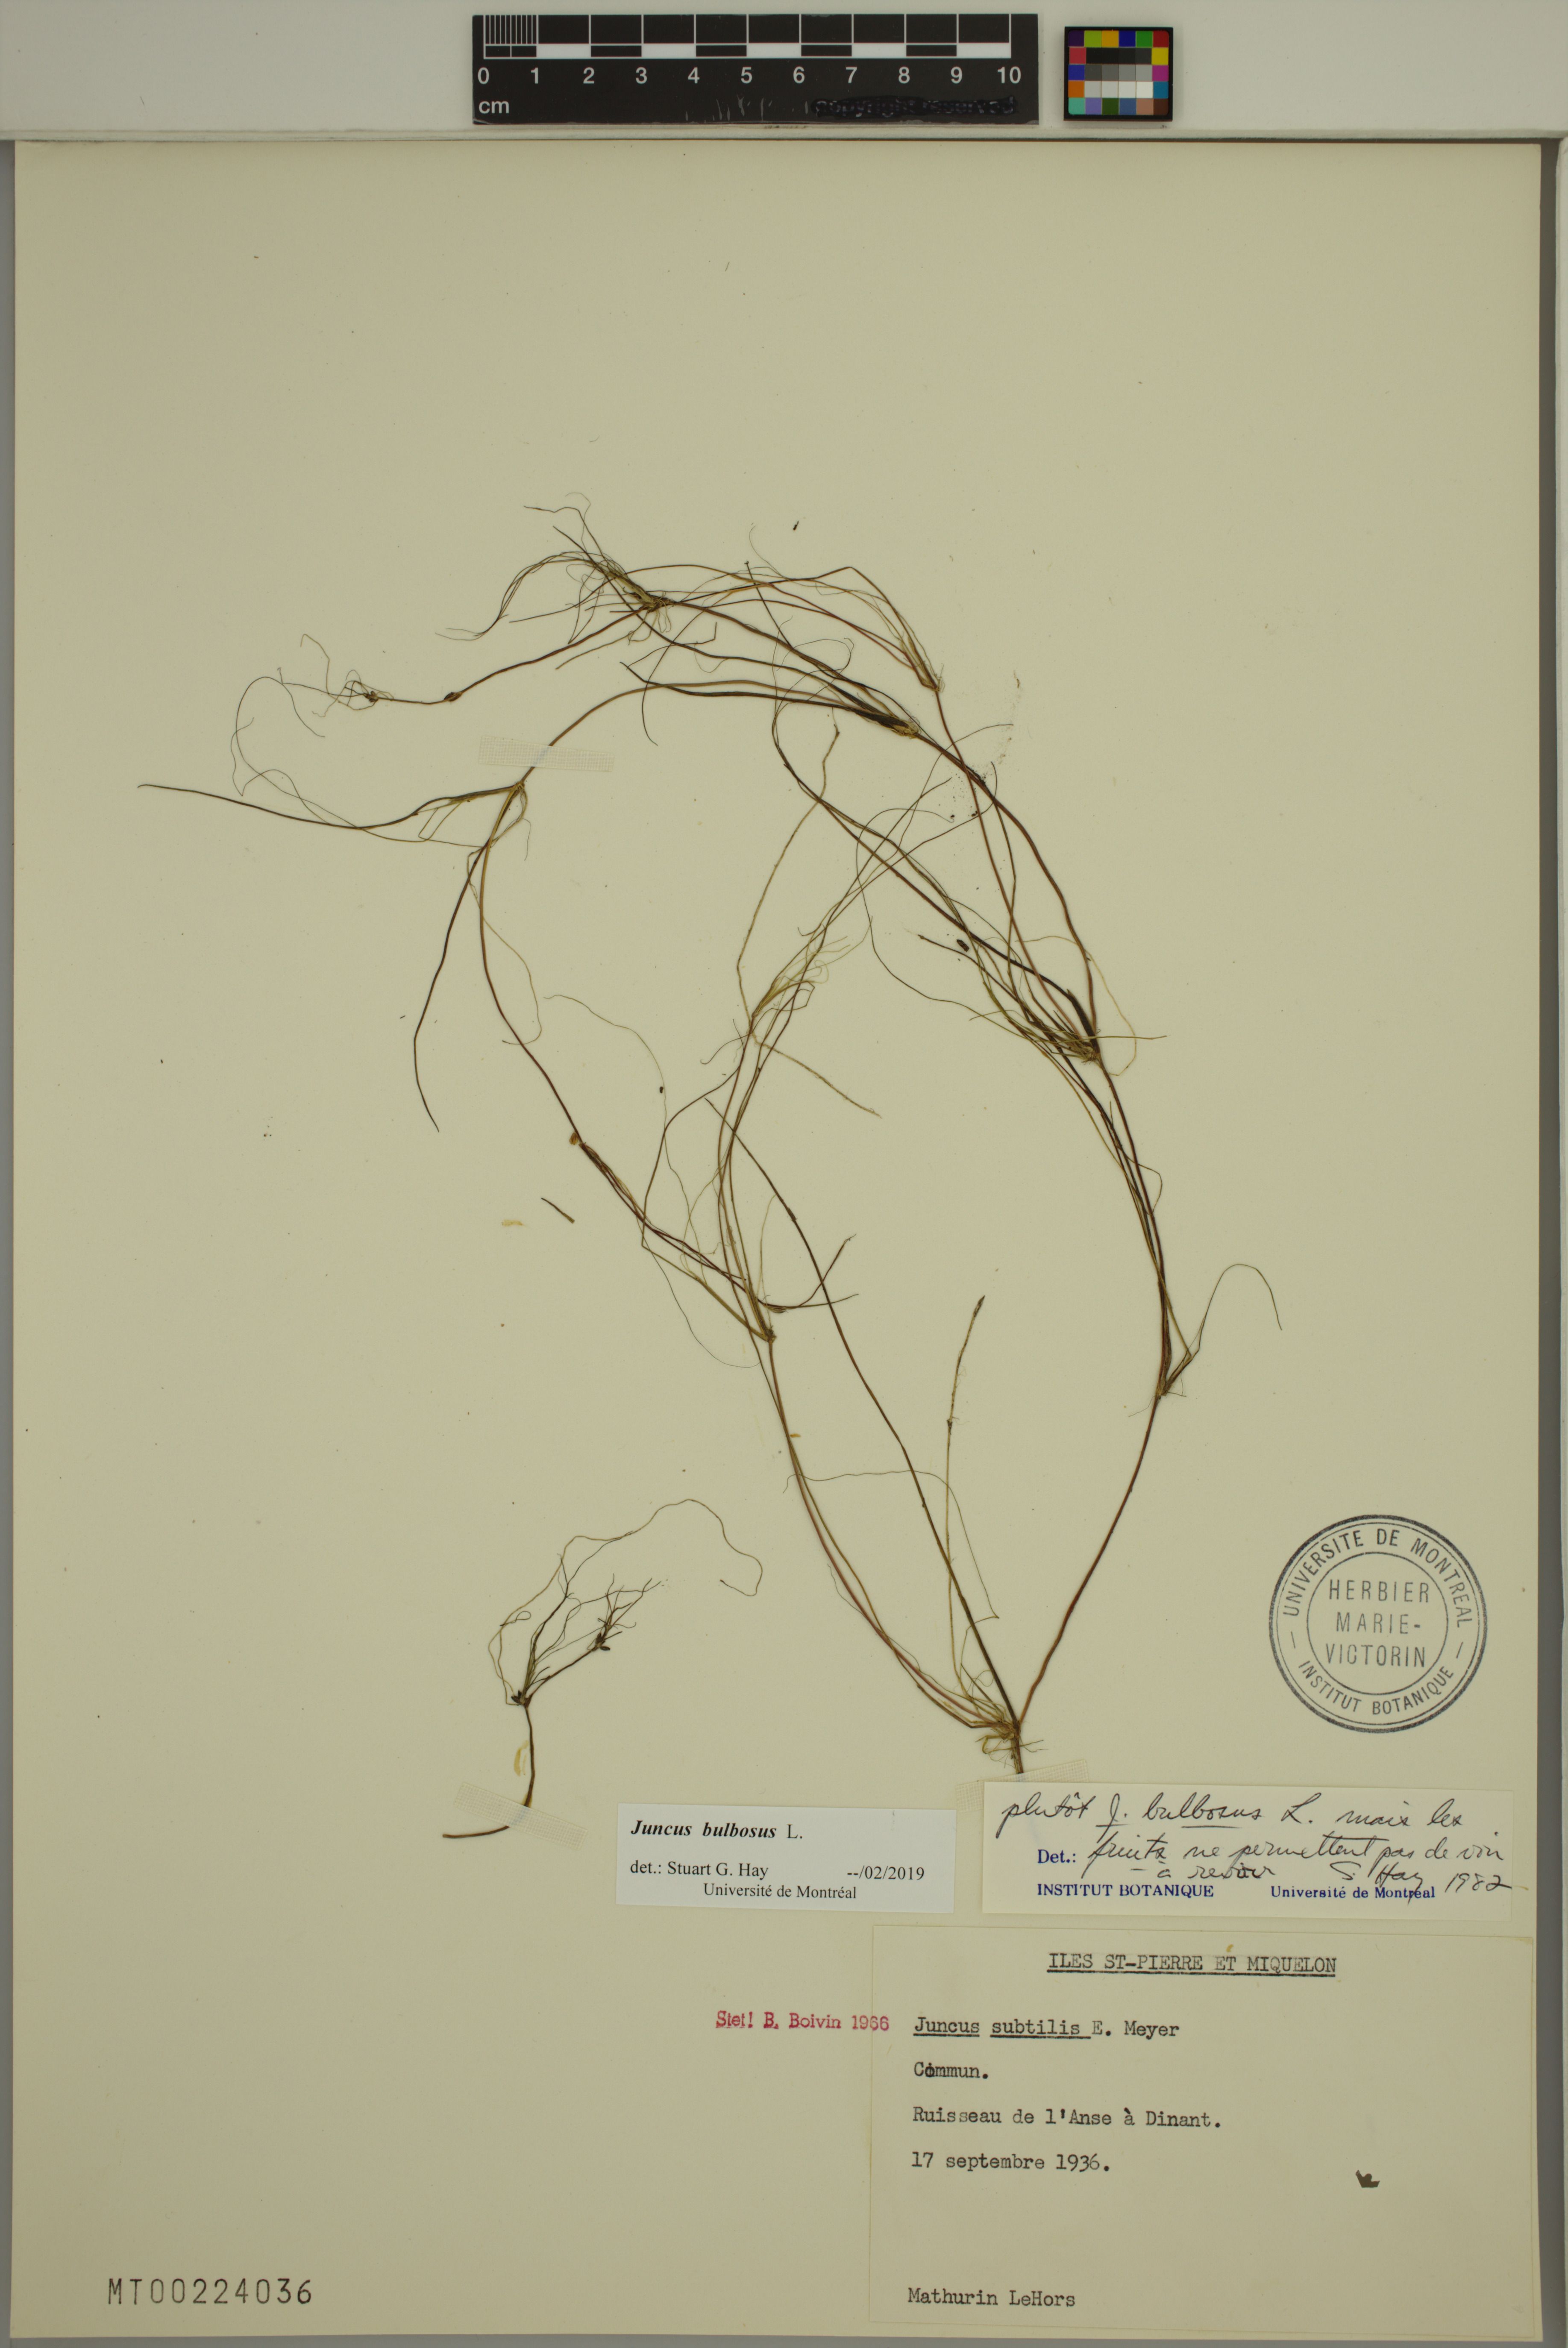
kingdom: Plantae
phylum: Tracheophyta
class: Liliopsida
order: Poales
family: Juncaceae
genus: Juncus
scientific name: Juncus bulbosus
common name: Bulbous rush
